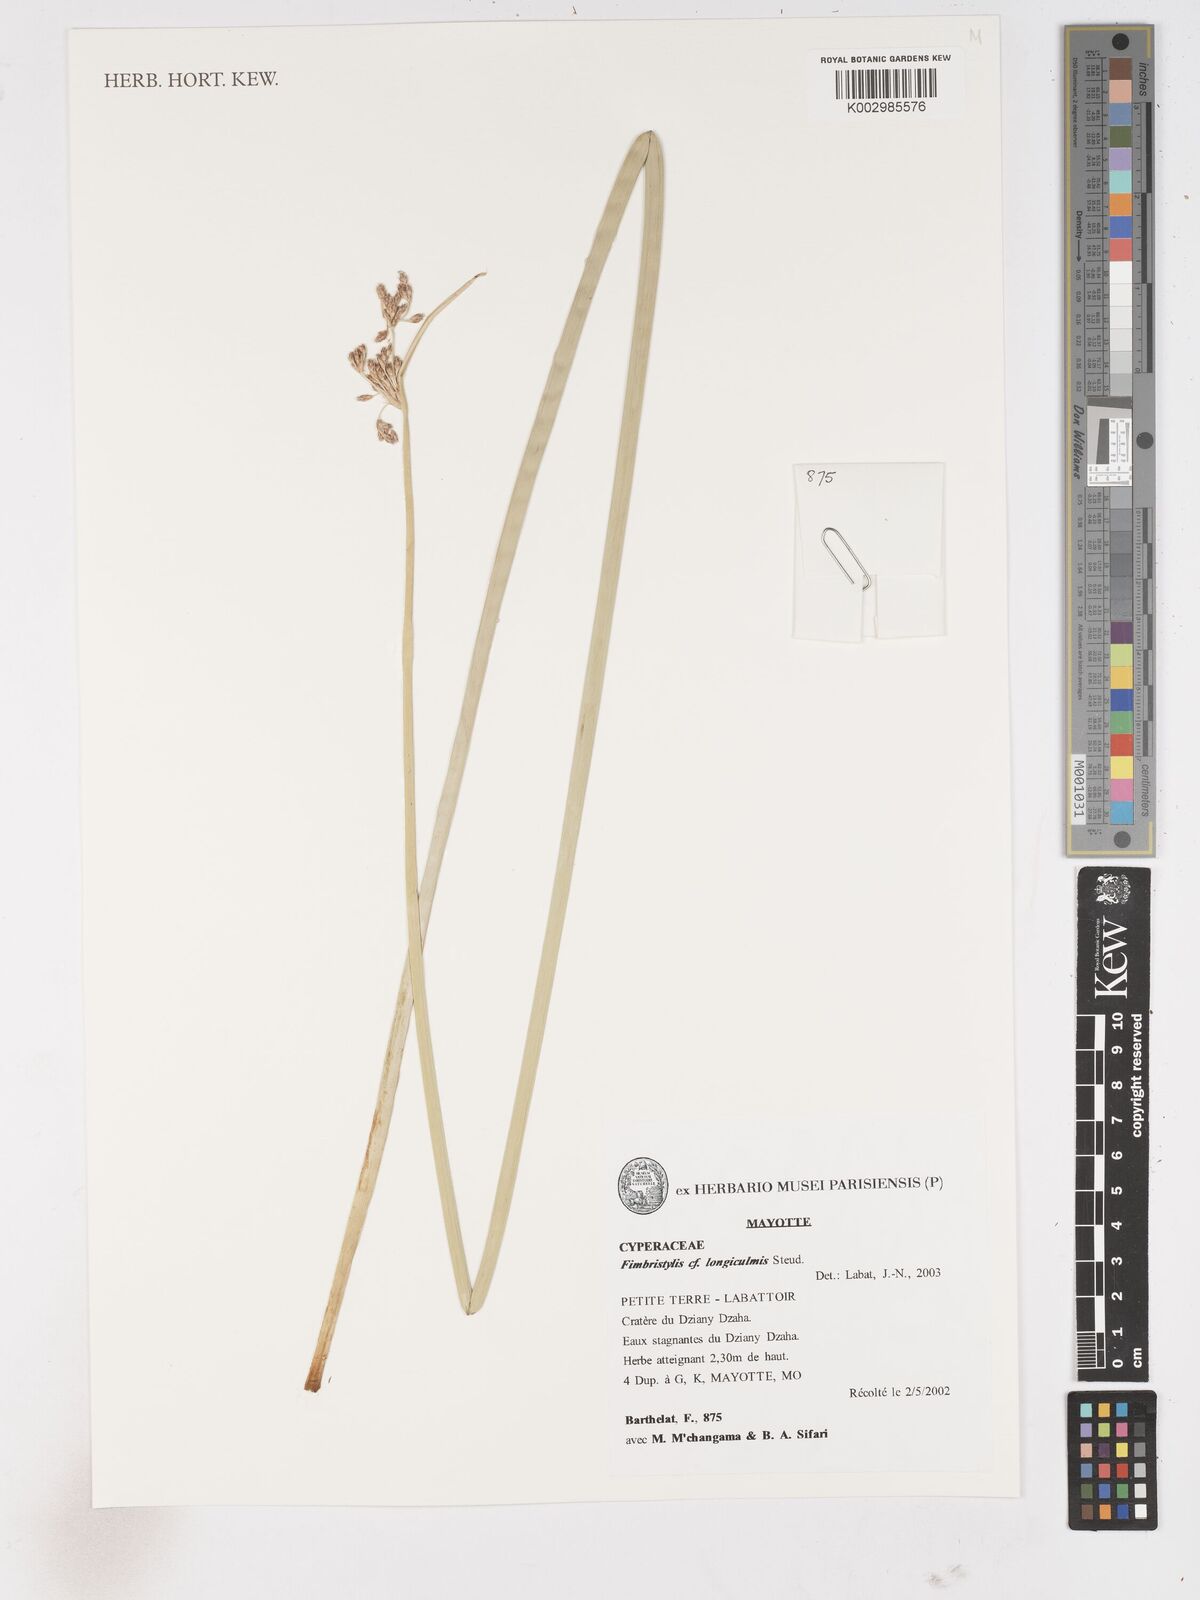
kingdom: Plantae
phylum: Tracheophyta
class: Liliopsida
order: Poales
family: Cyperaceae
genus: Fimbristylis
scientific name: Fimbristylis bivalvis
